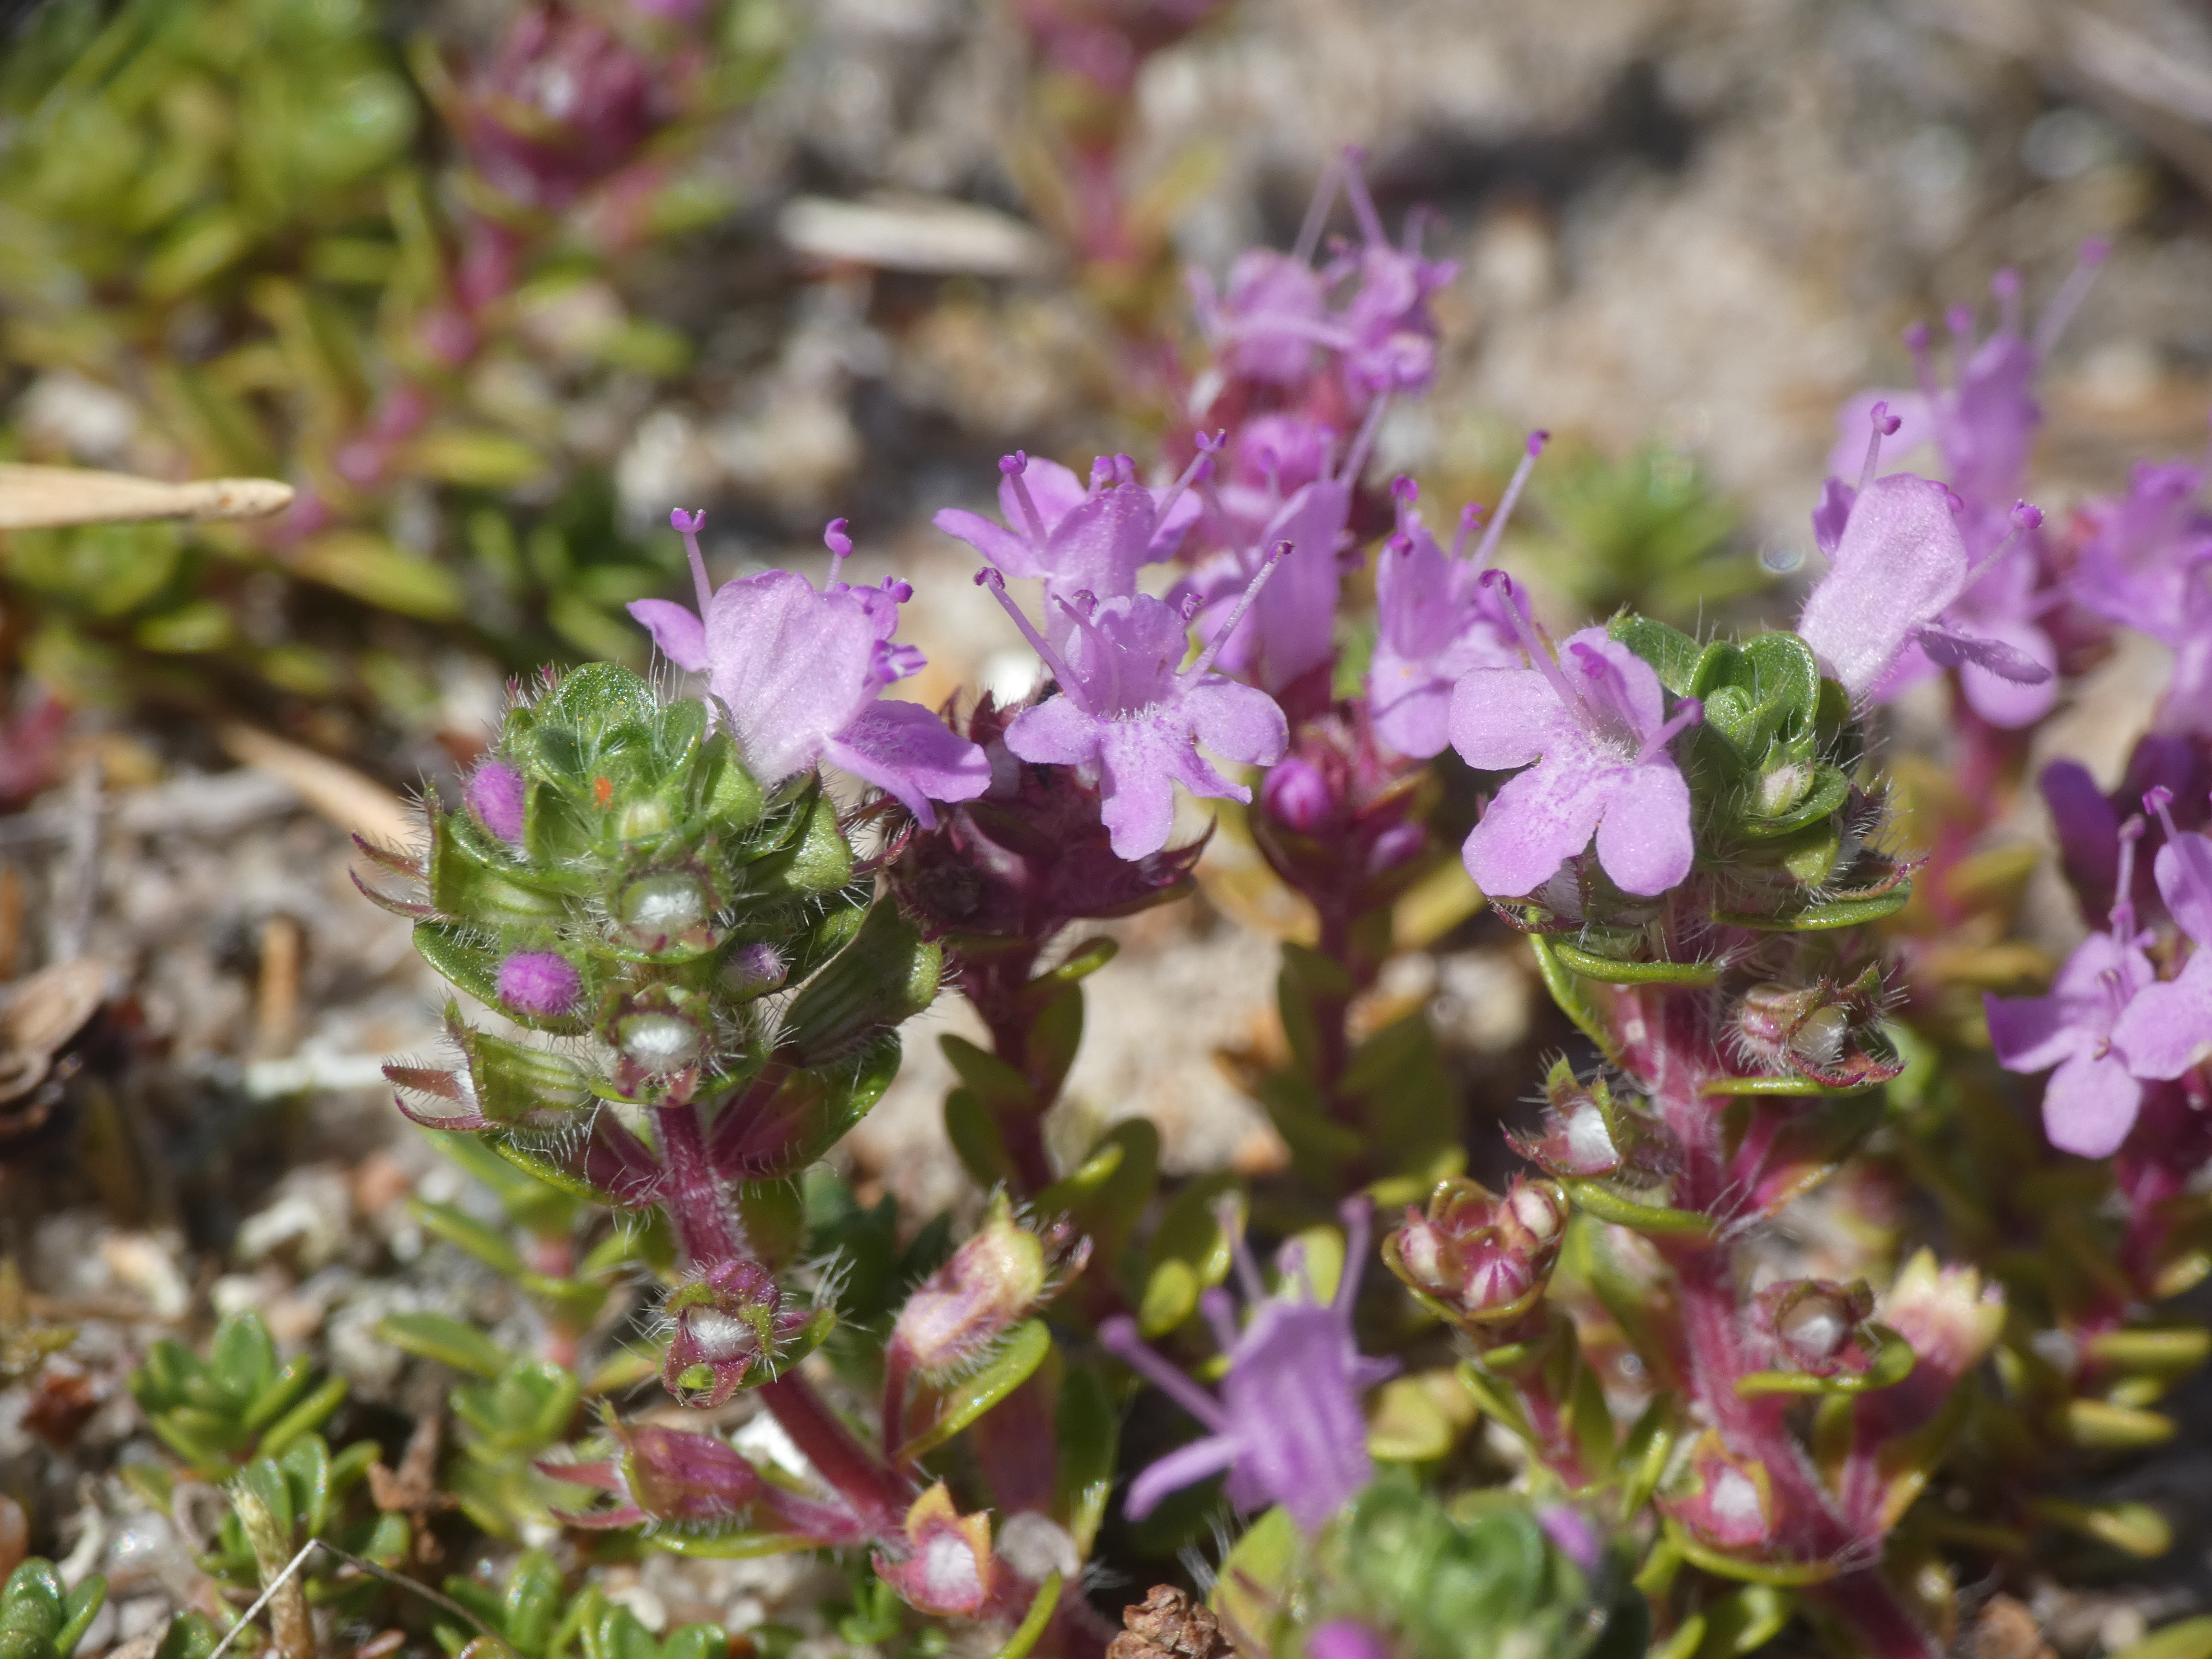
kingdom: Plantae
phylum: Tracheophyta
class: Magnoliopsida
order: Lamiales
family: Lamiaceae
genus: Thymus
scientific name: Thymus serpyllum
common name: Smalbladet timian
